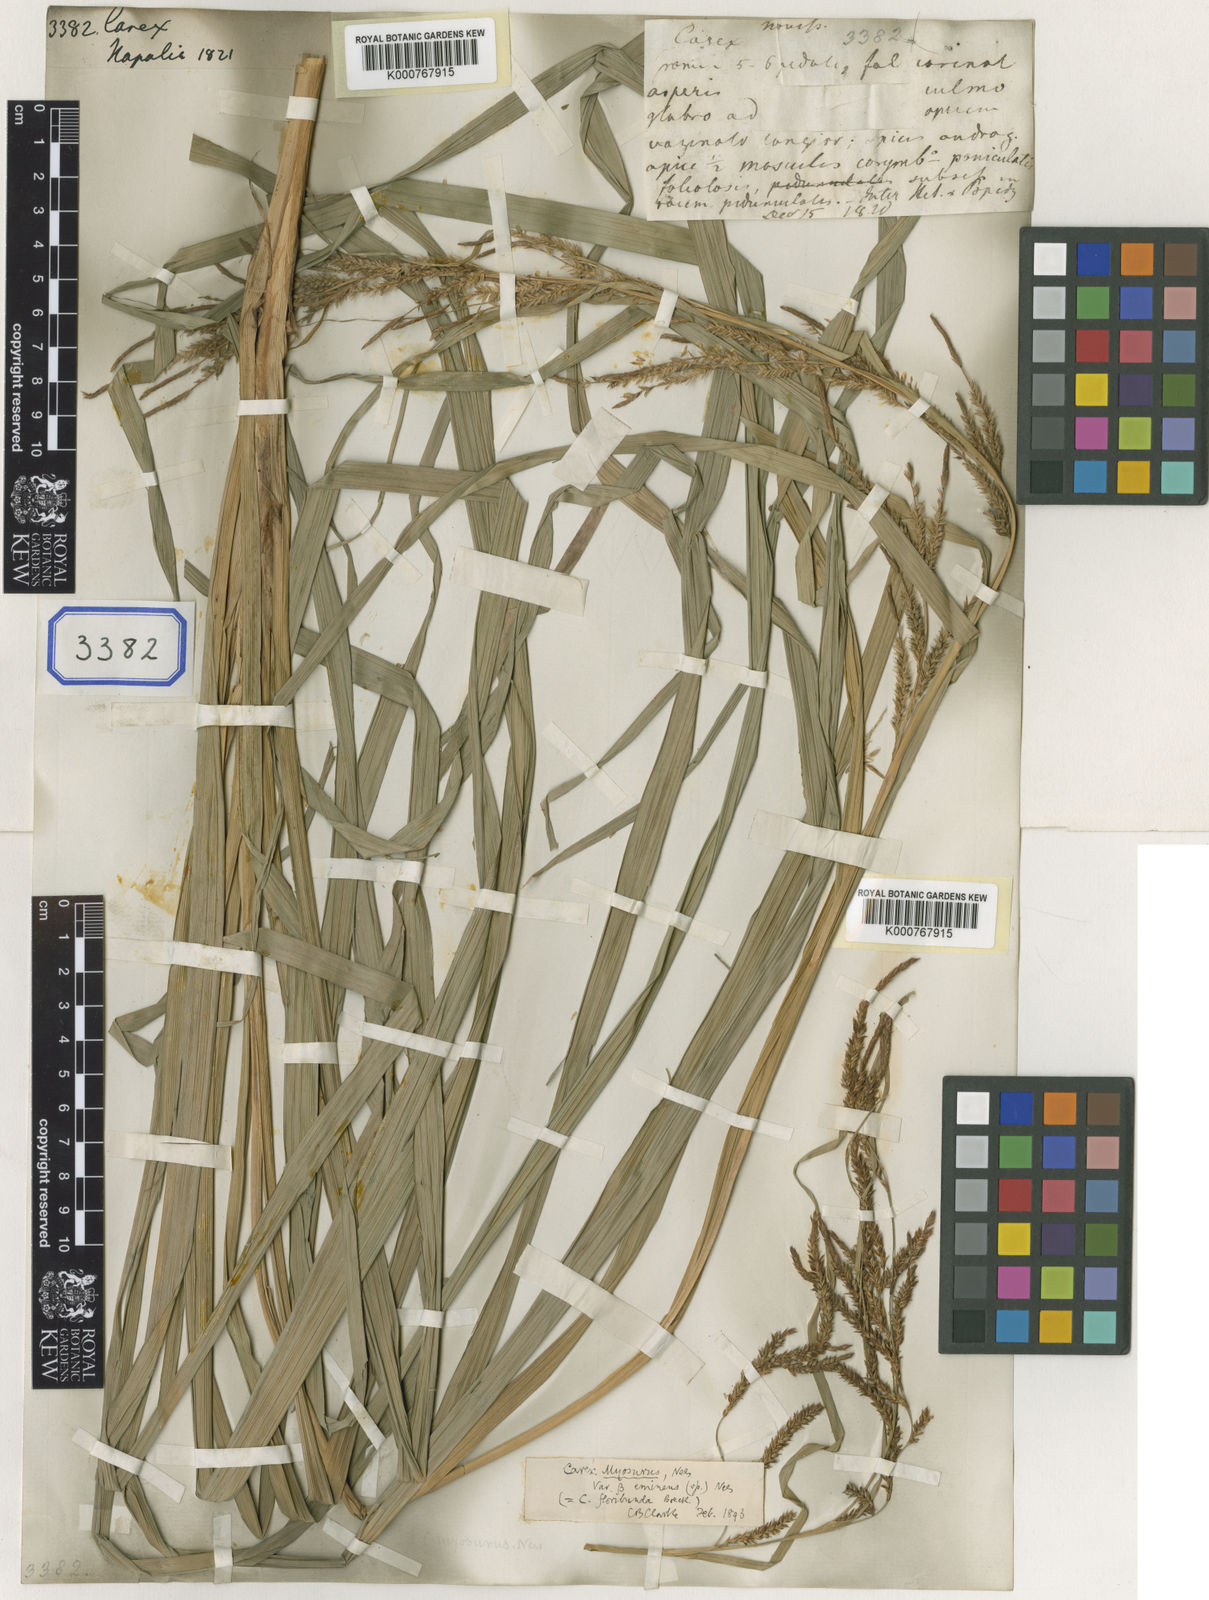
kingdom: Plantae
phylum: Tracheophyta
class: Liliopsida
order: Poales
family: Cyperaceae
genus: Carex
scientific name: Carex
